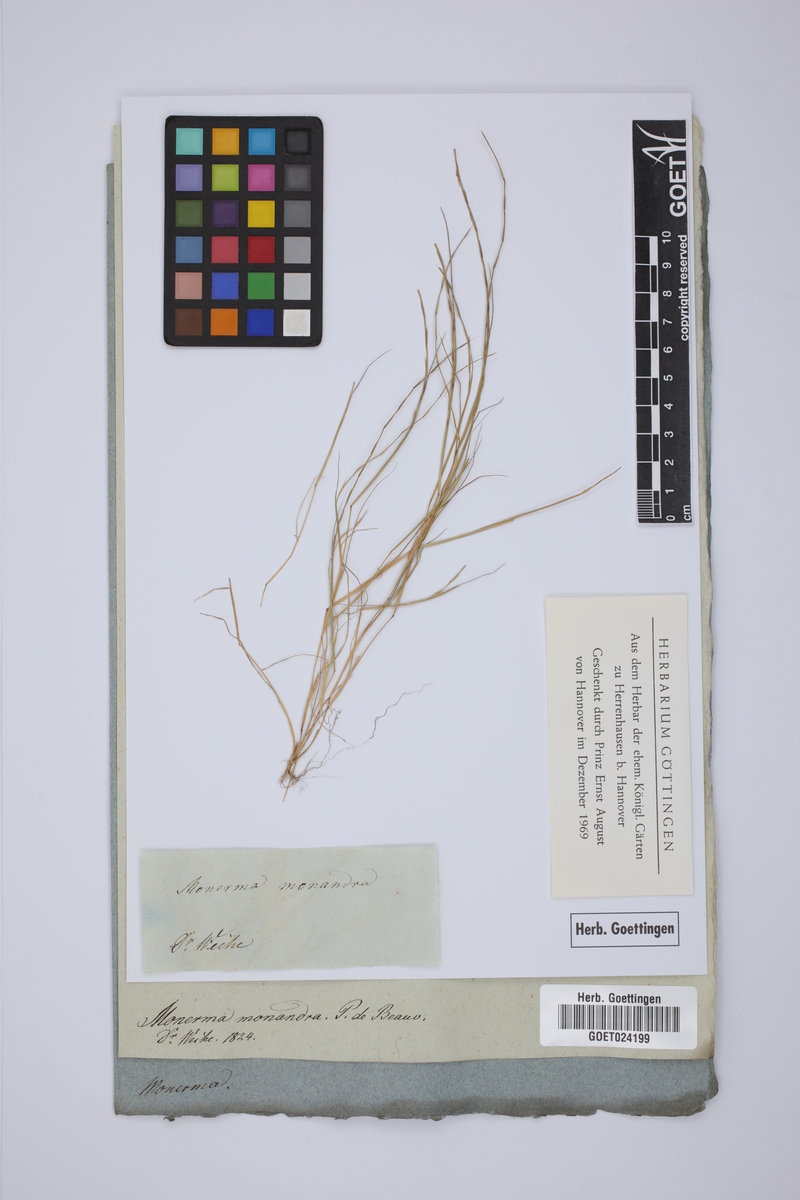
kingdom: Plantae
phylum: Tracheophyta
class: Liliopsida
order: Poales
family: Poaceae
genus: Parapholis
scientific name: Parapholis cylindrica
